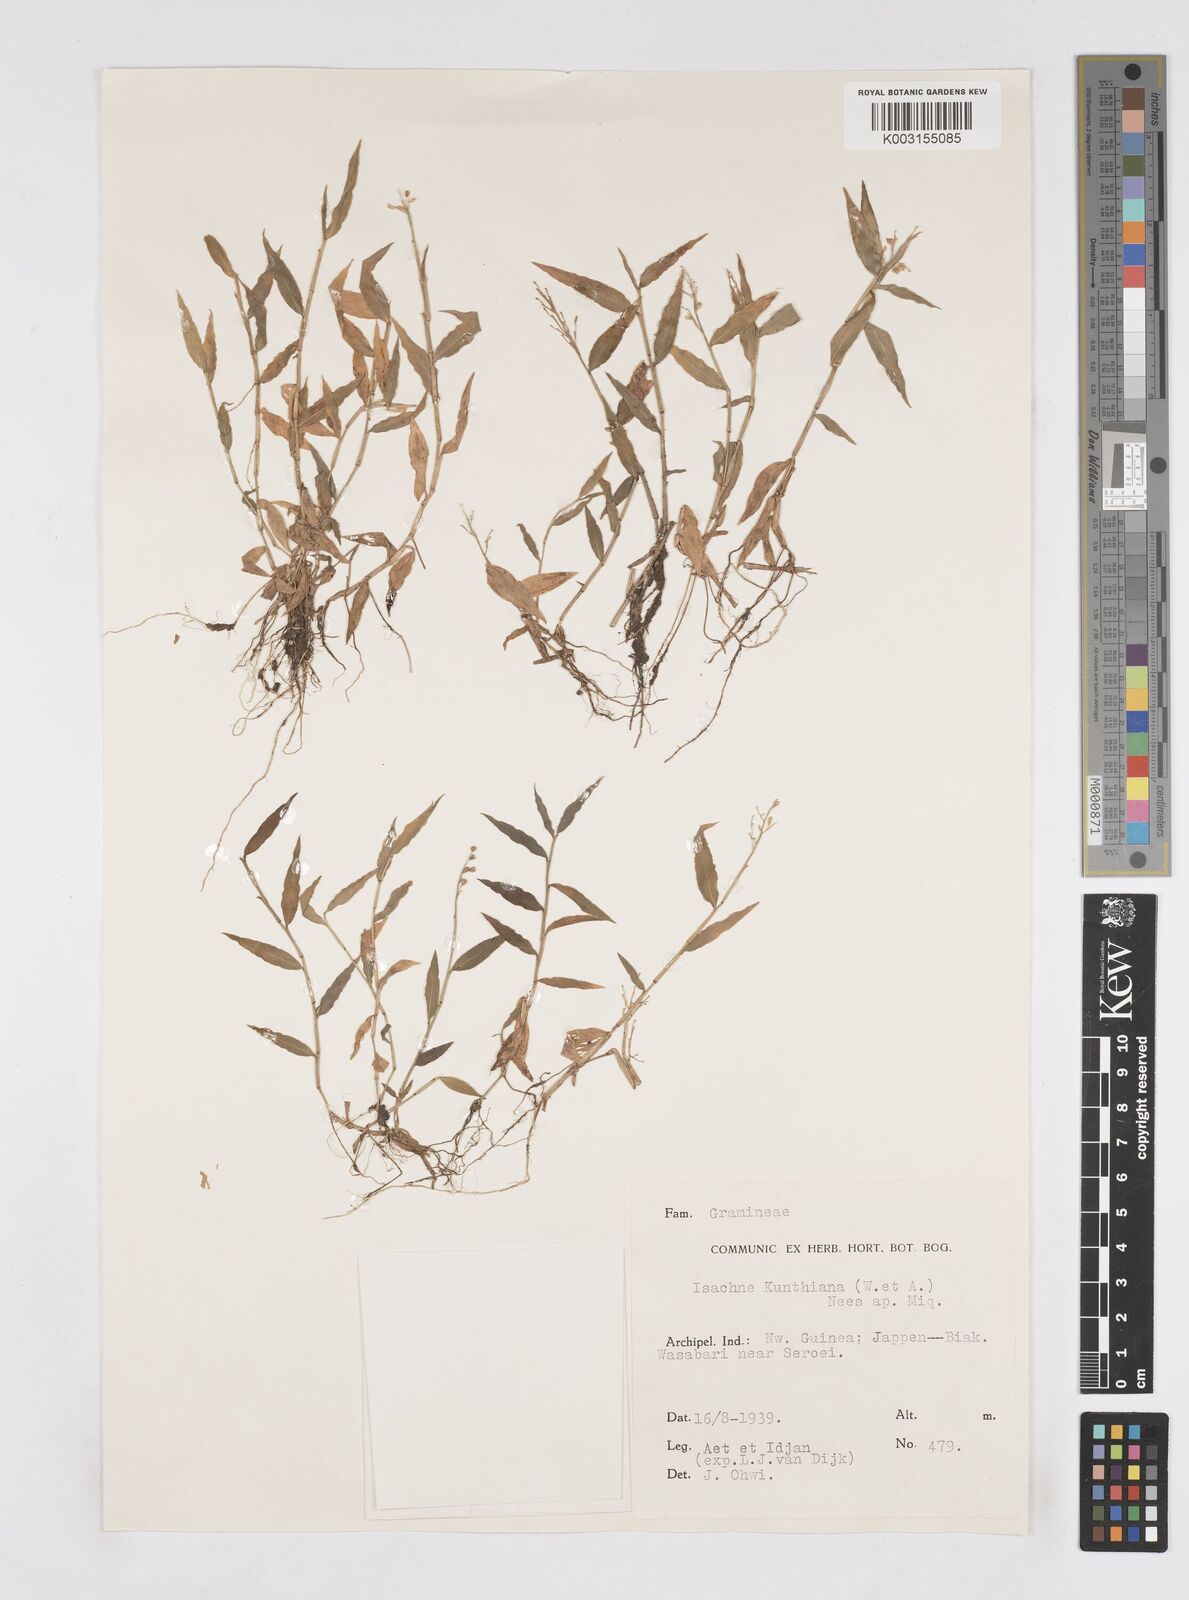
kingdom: Plantae
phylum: Tracheophyta
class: Liliopsida
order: Poales
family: Poaceae
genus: Isachne
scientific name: Isachne schmidtii
